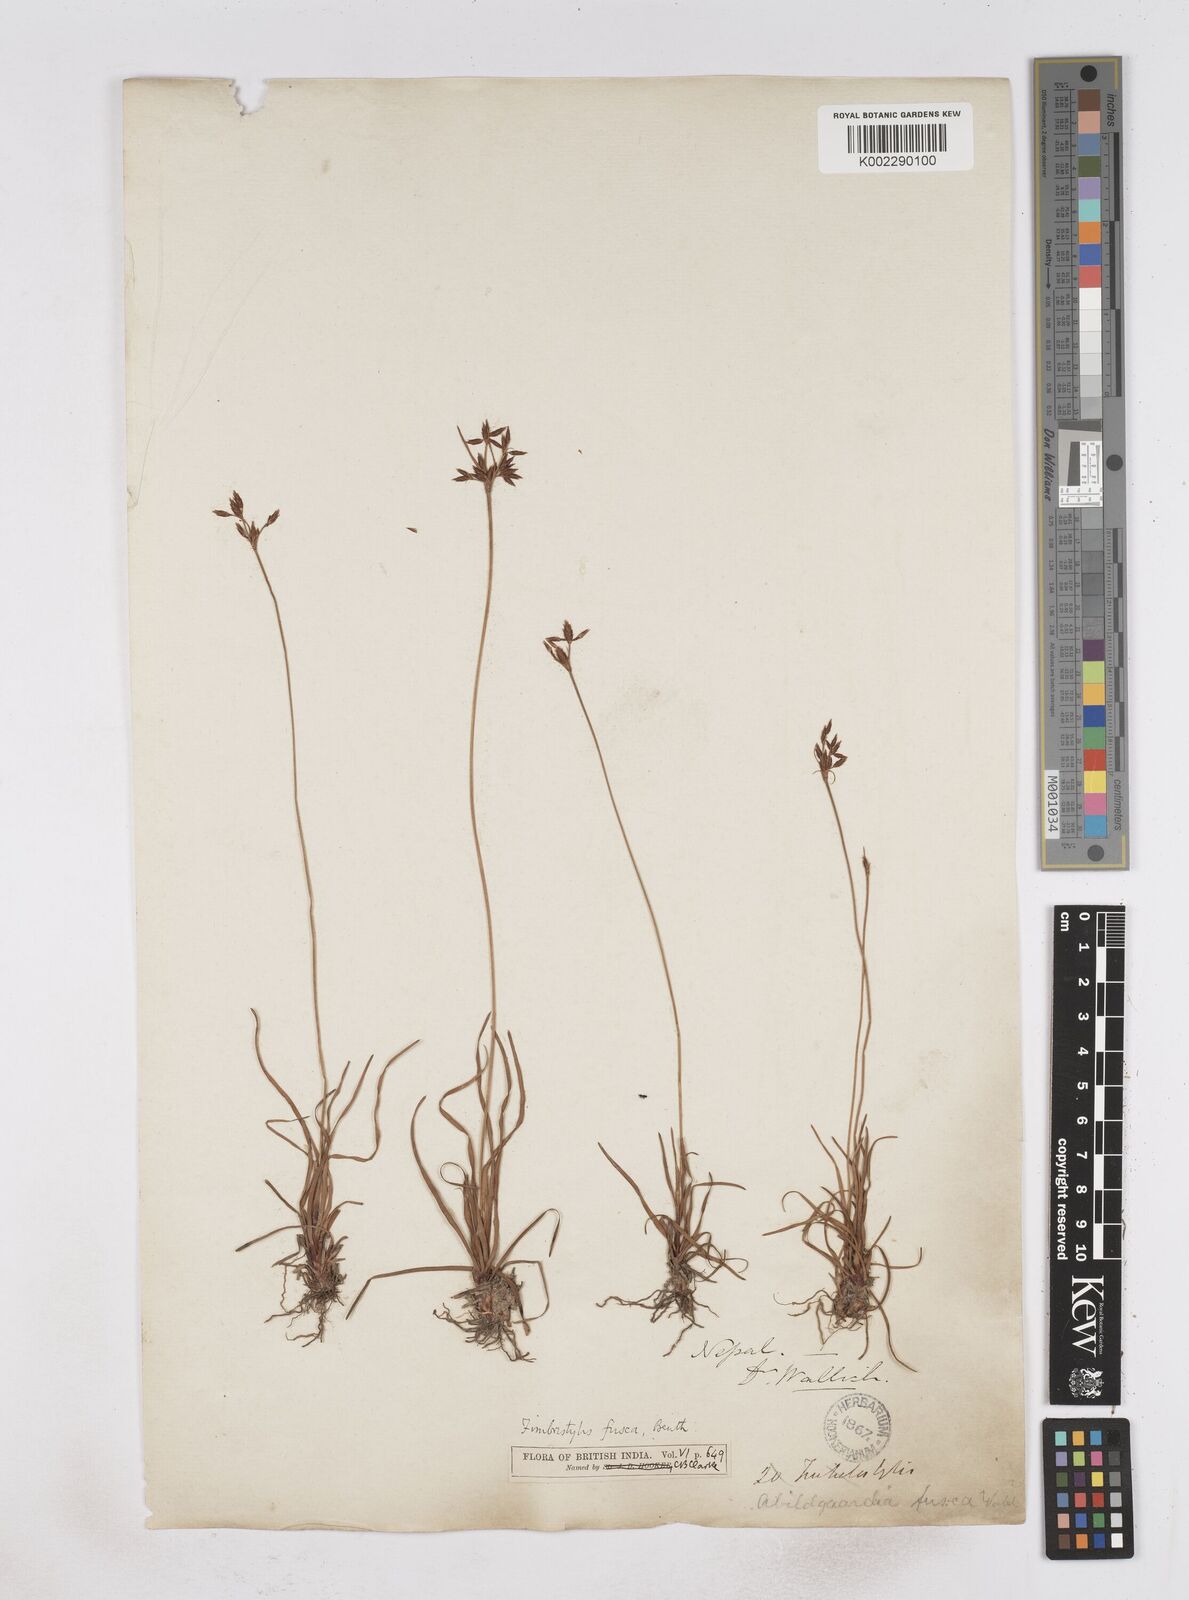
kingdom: Plantae
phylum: Tracheophyta
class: Liliopsida
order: Poales
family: Cyperaceae
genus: Fimbristylis
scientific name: Fimbristylis fusca
